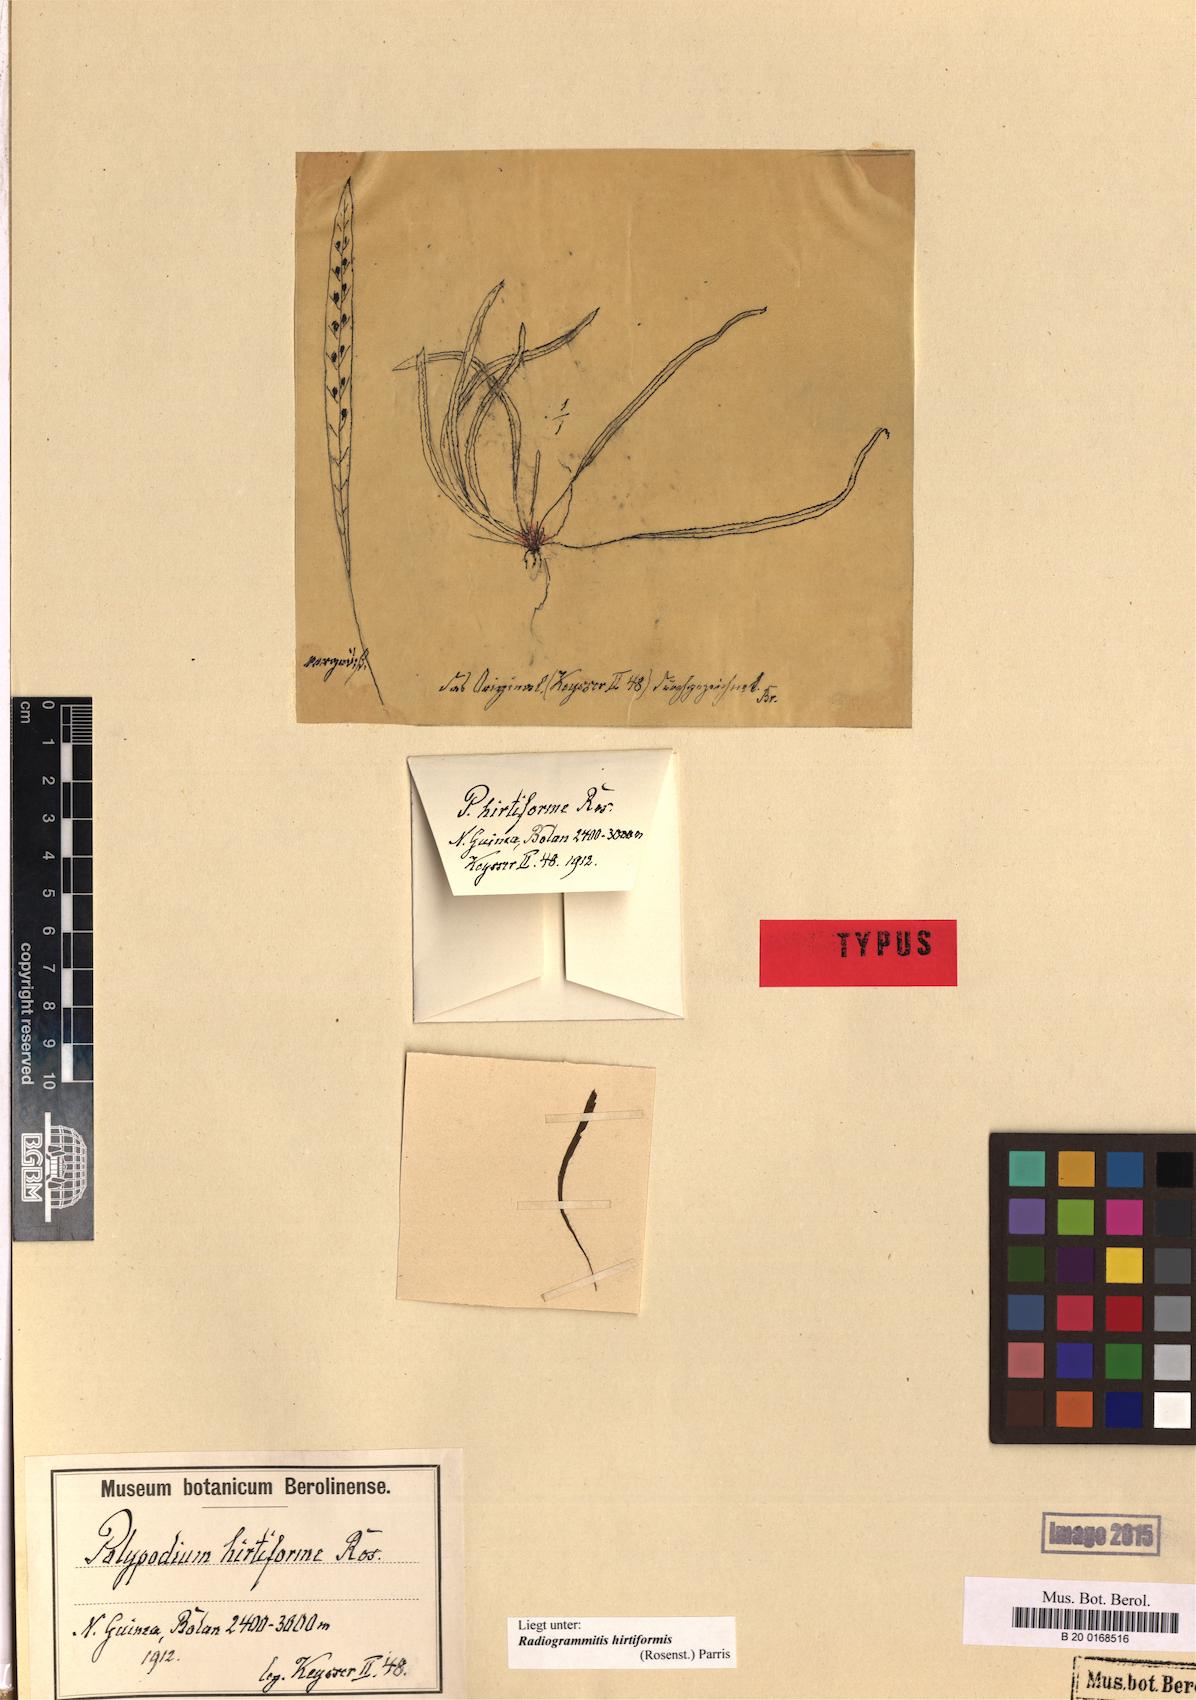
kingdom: Plantae
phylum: Tracheophyta
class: Polypodiopsida
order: Polypodiales
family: Polypodiaceae
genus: Oreogrammitis
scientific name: Oreogrammitis hirtiformis
